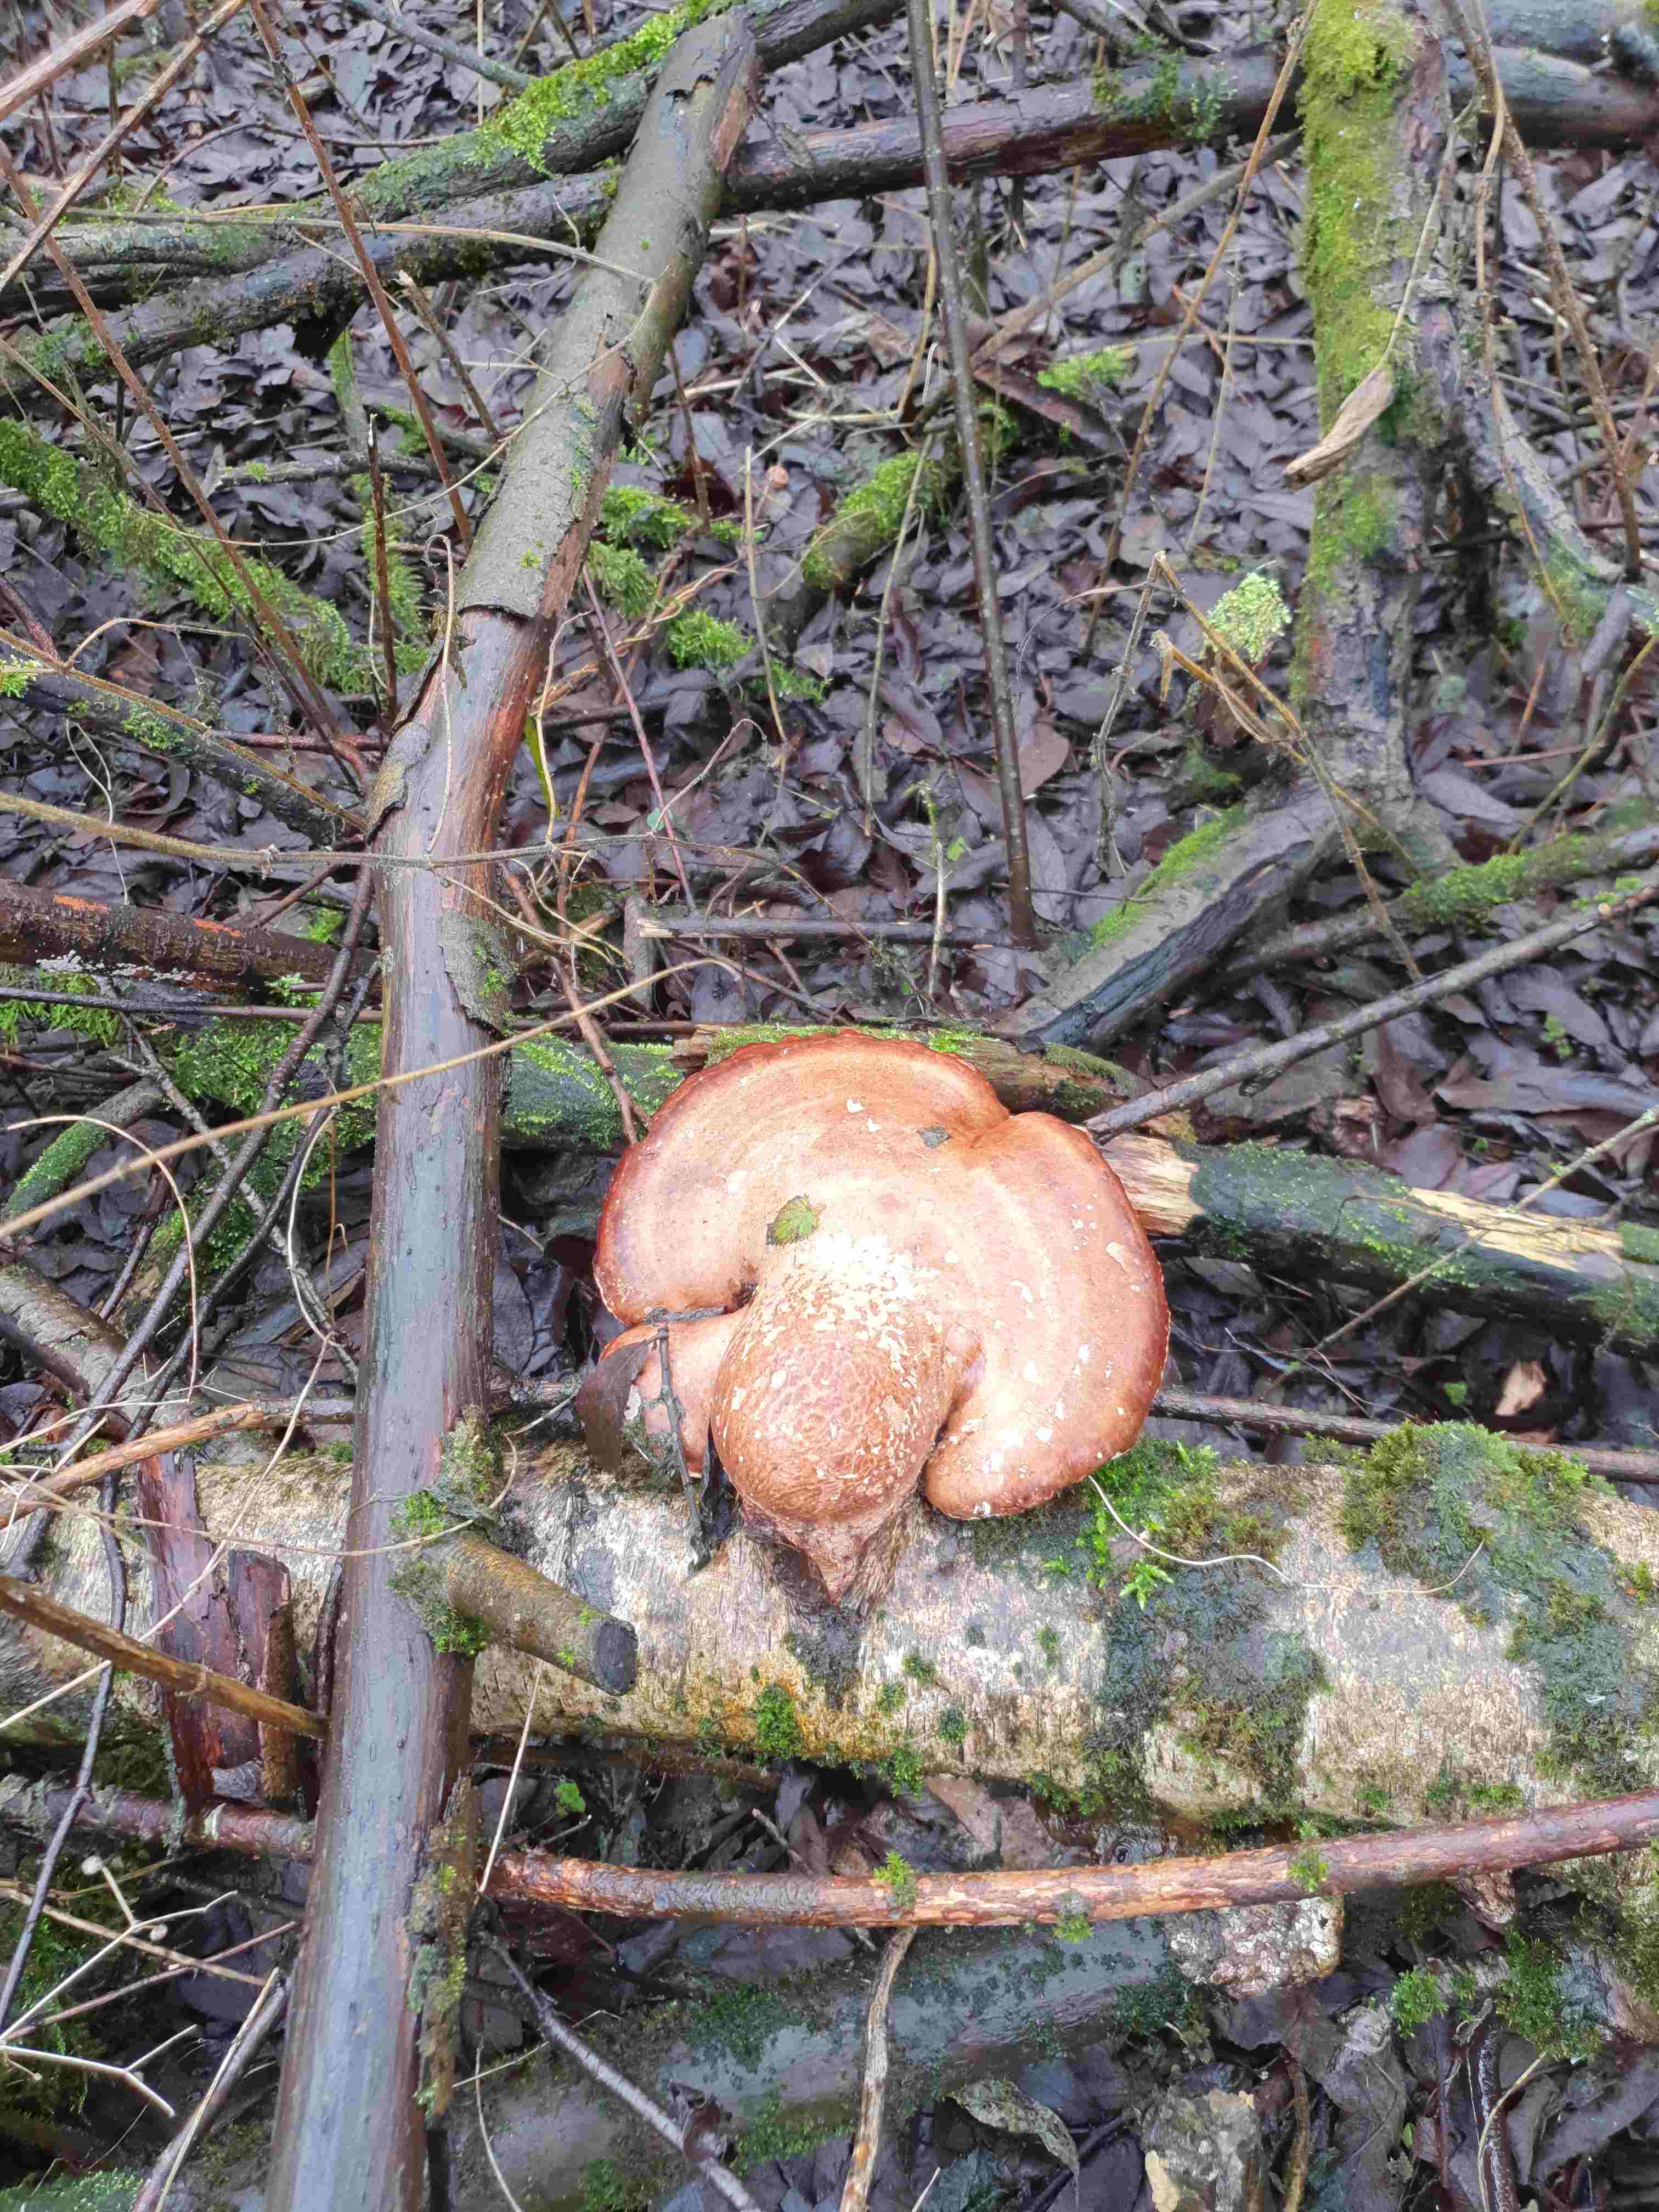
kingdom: Fungi
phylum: Basidiomycota
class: Agaricomycetes
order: Polyporales
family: Fomitopsidaceae
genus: Fomitopsis
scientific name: Fomitopsis betulina
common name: birkeporesvamp
